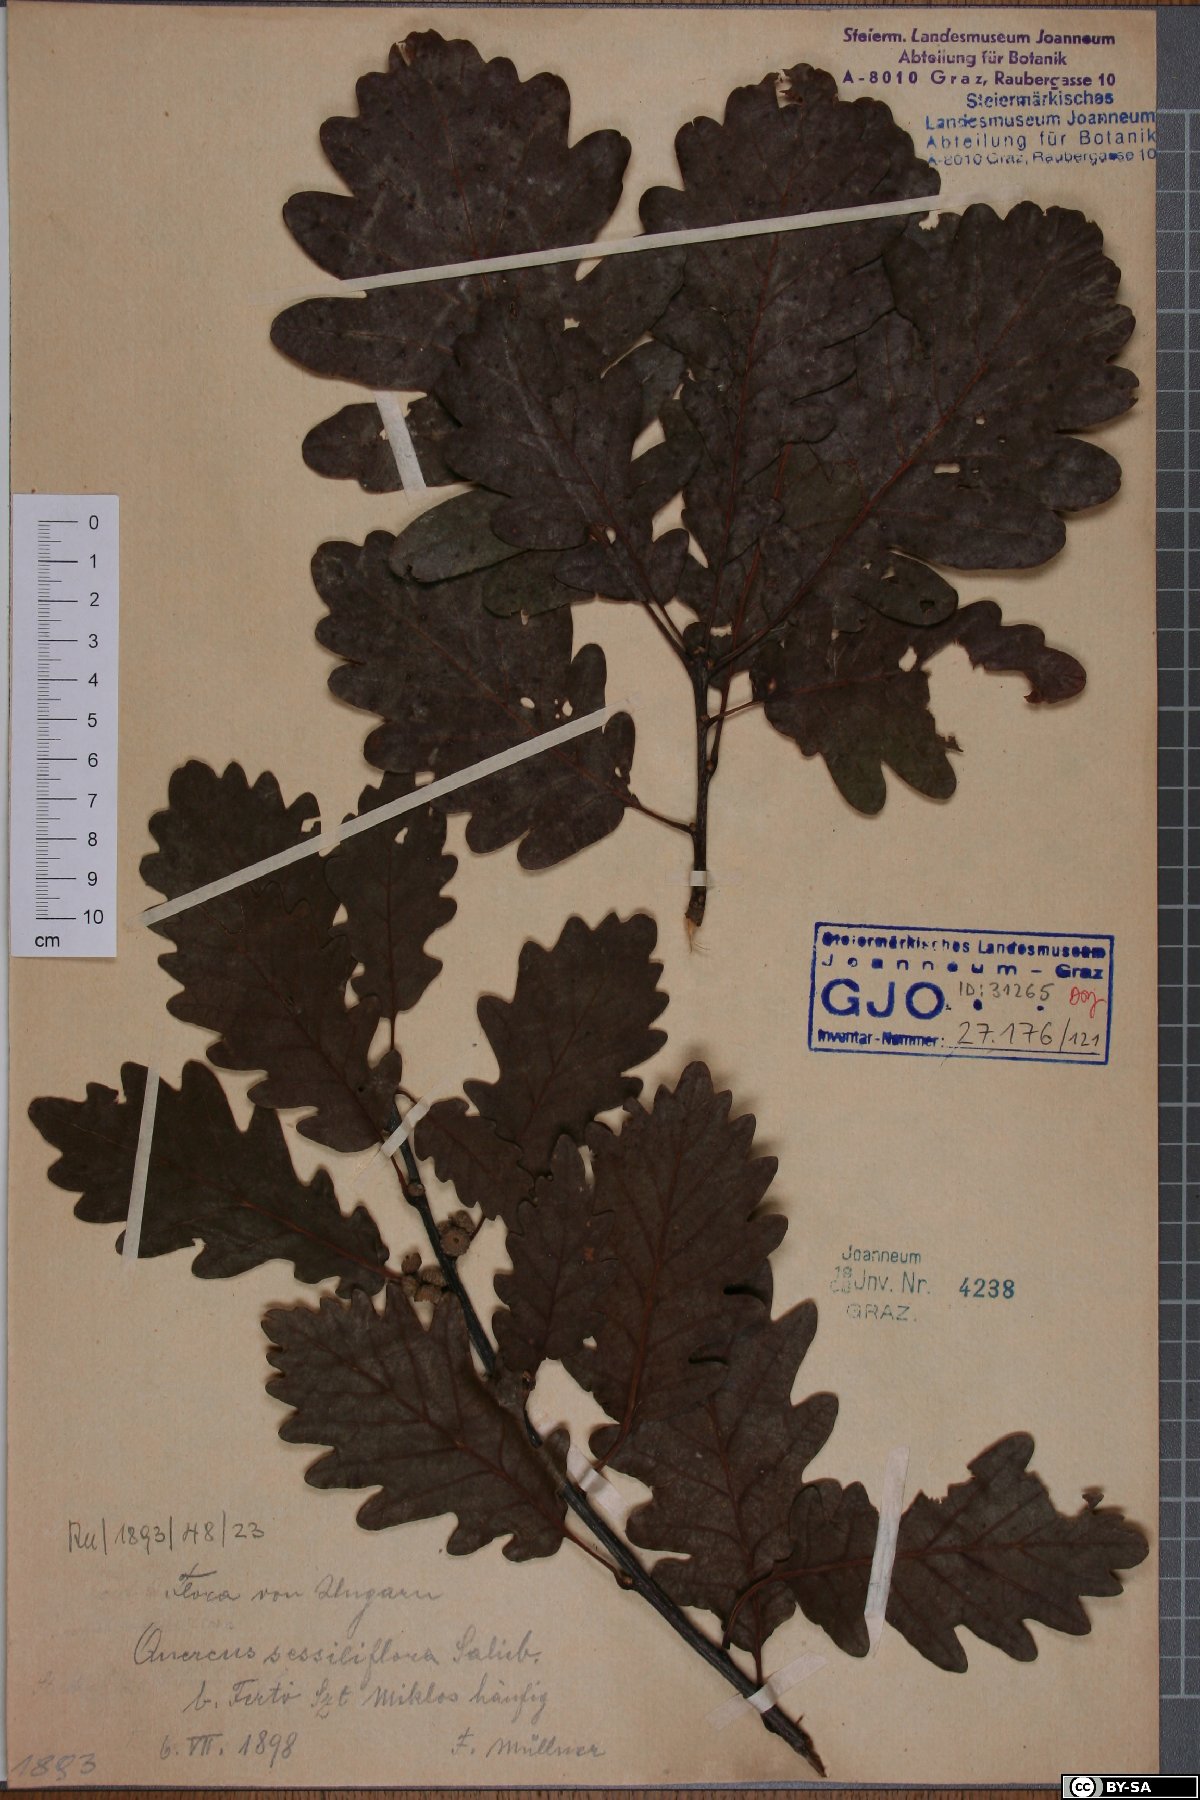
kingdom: Plantae
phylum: Tracheophyta
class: Magnoliopsida
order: Fagales
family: Fagaceae
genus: Quercus
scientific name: Quercus petraea
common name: Sessile oak
